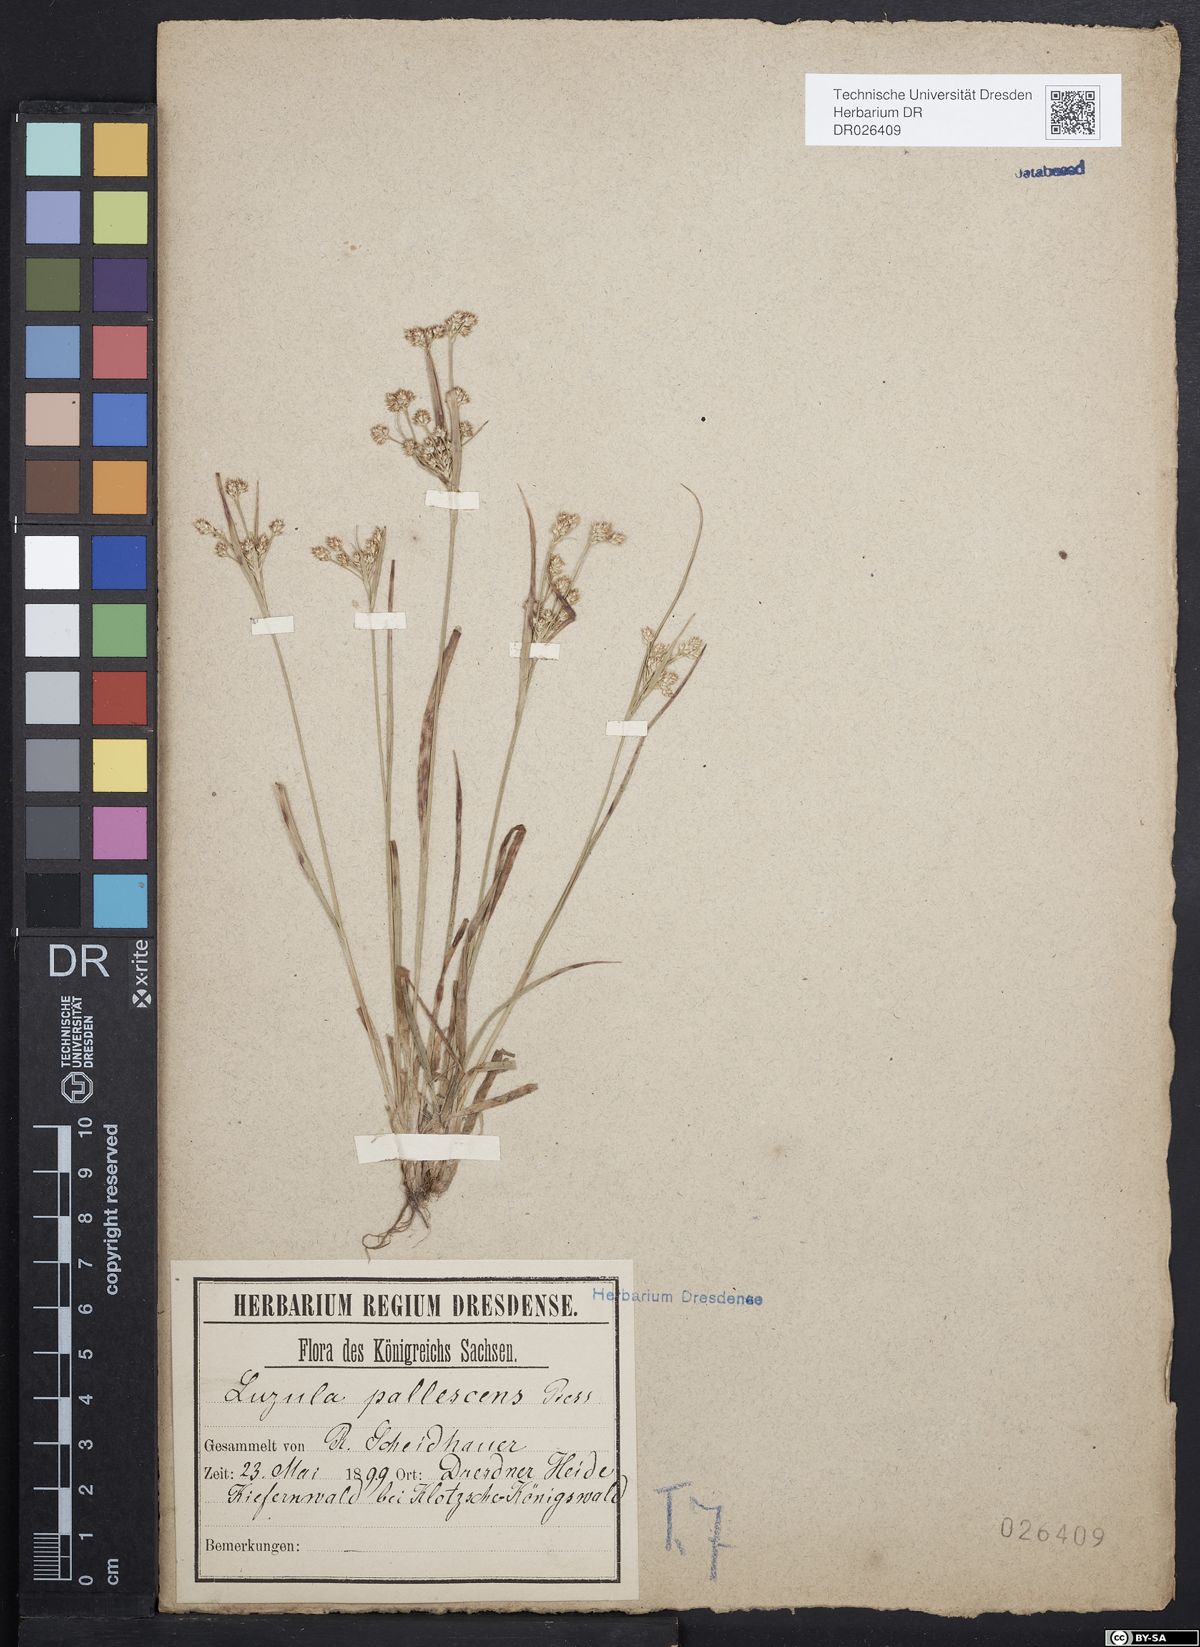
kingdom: Plantae
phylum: Tracheophyta
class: Liliopsida
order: Poales
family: Juncaceae
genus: Luzula
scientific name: Luzula pallescens
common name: Fen wood-rush
